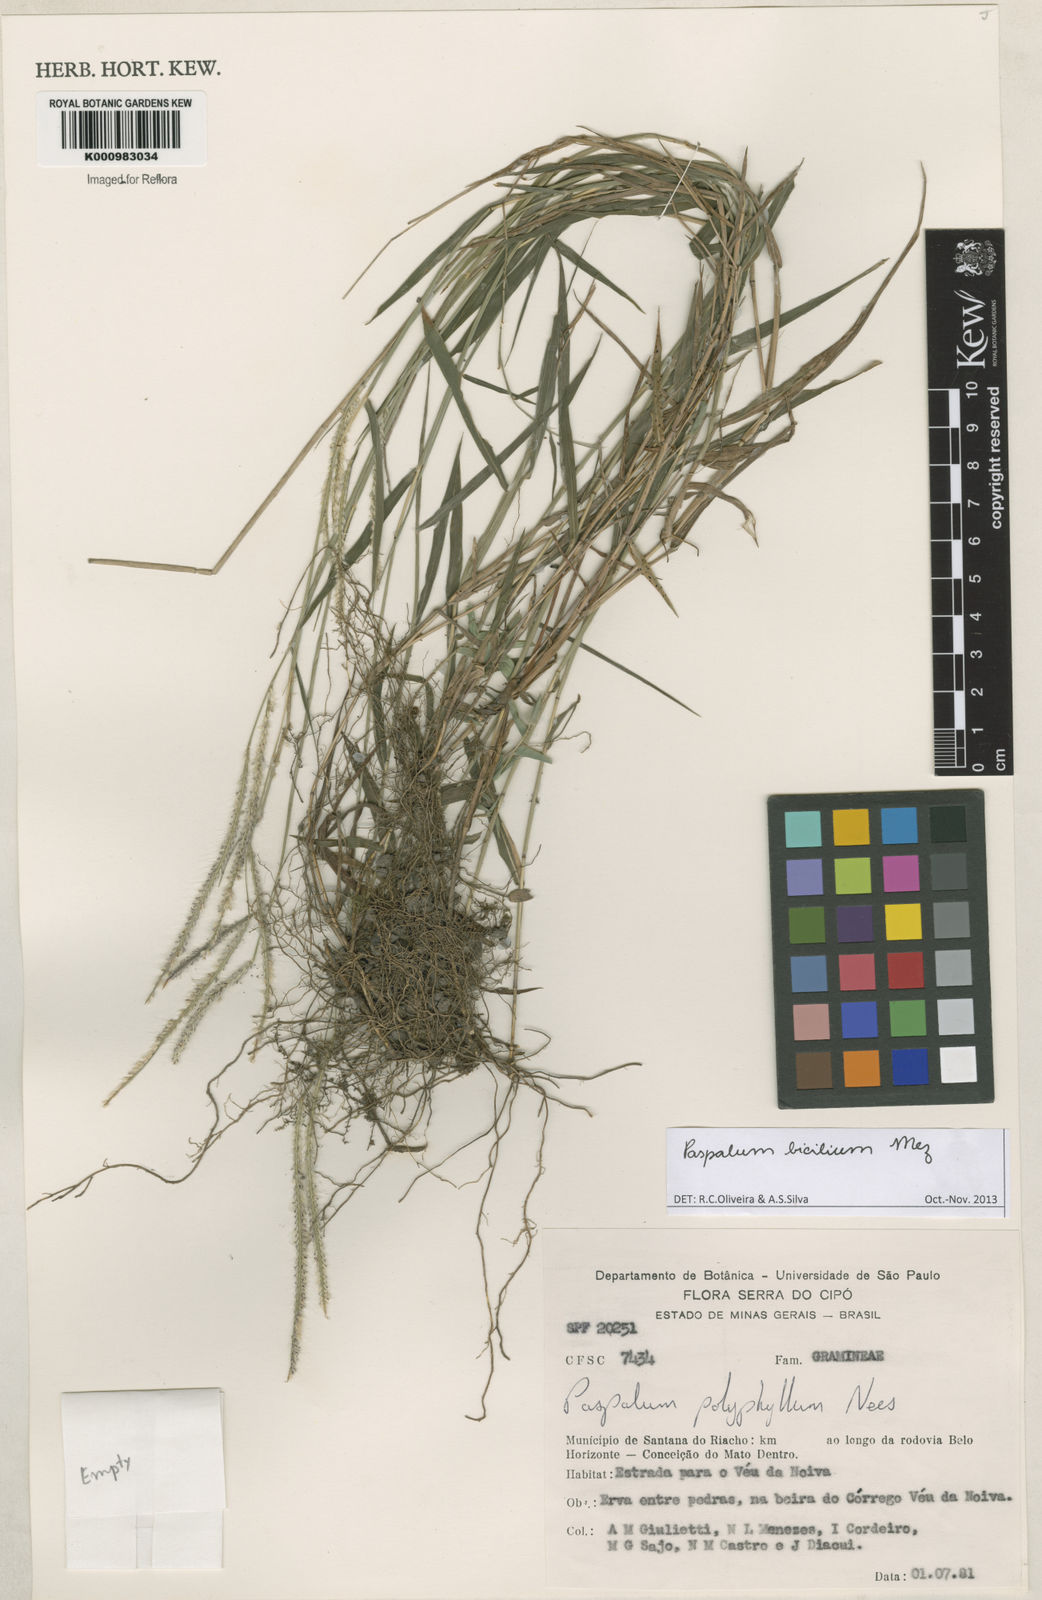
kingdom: Plantae
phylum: Tracheophyta
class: Liliopsida
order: Poales
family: Poaceae
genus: Paspalum
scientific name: Paspalum polyphyllum
